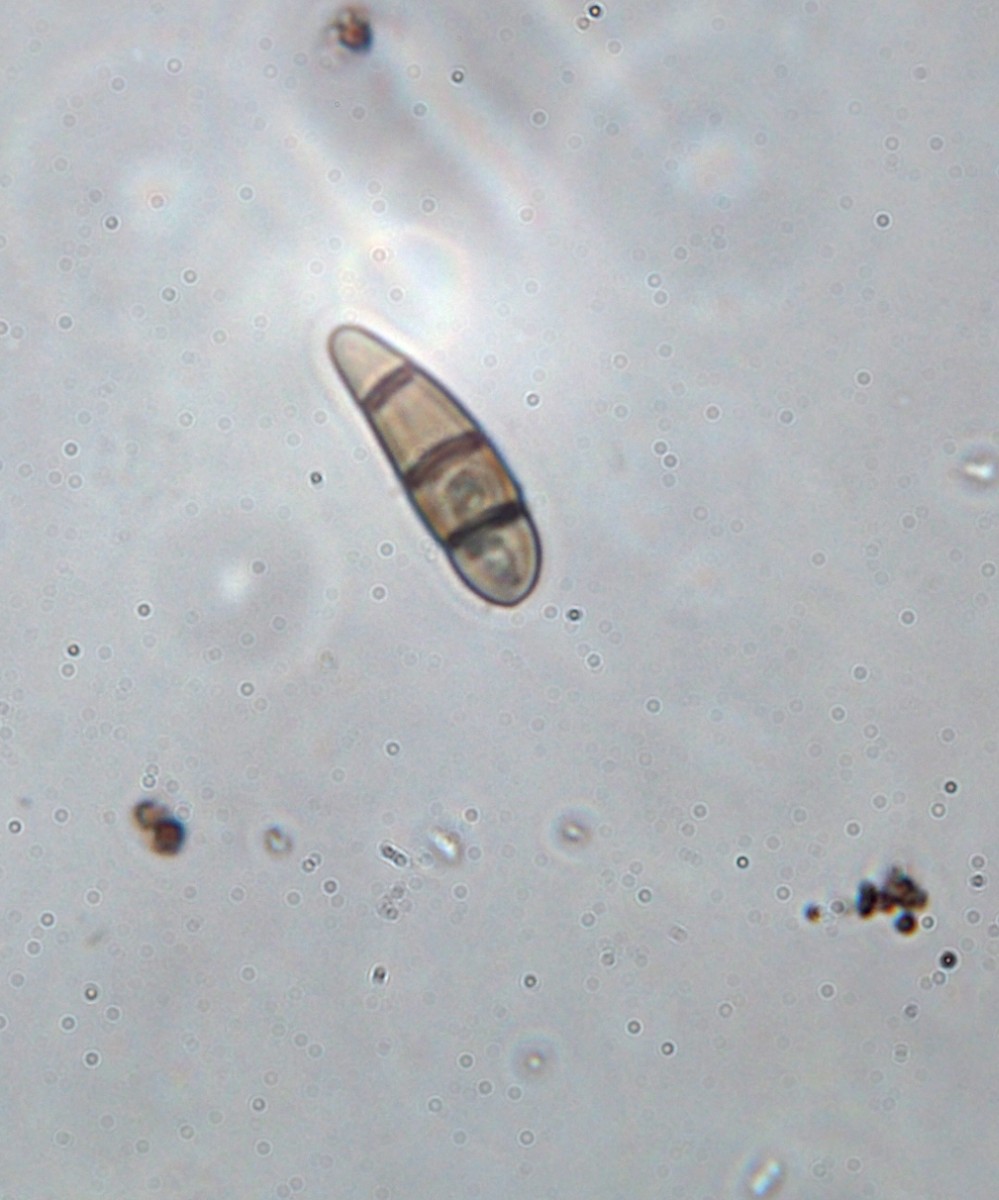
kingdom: Fungi
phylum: Ascomycota
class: Dothideomycetes
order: Hysteriales
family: Hysteriaceae
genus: Hysterium
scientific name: Hysterium acuminatum
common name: almindelig kulmund
